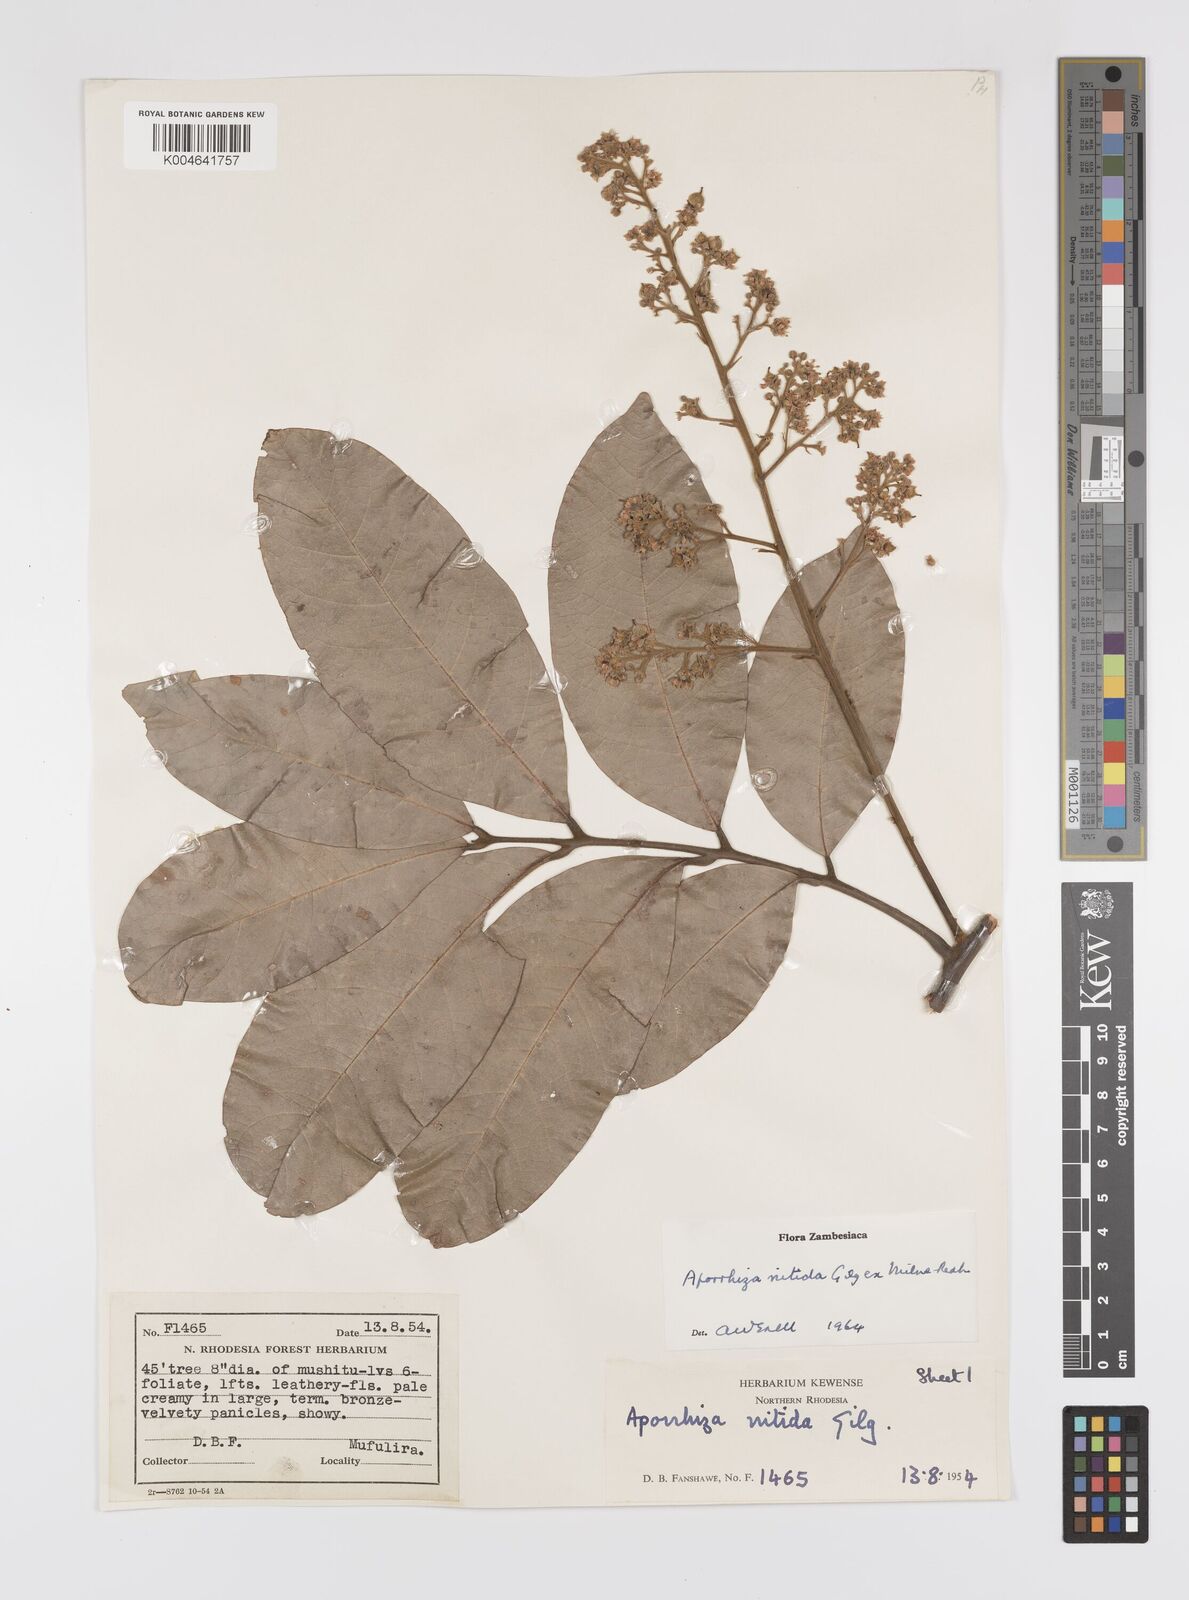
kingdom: Plantae
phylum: Tracheophyta
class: Magnoliopsida
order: Sapindales
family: Sapindaceae
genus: Aporrhiza
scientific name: Aporrhiza paniculata
